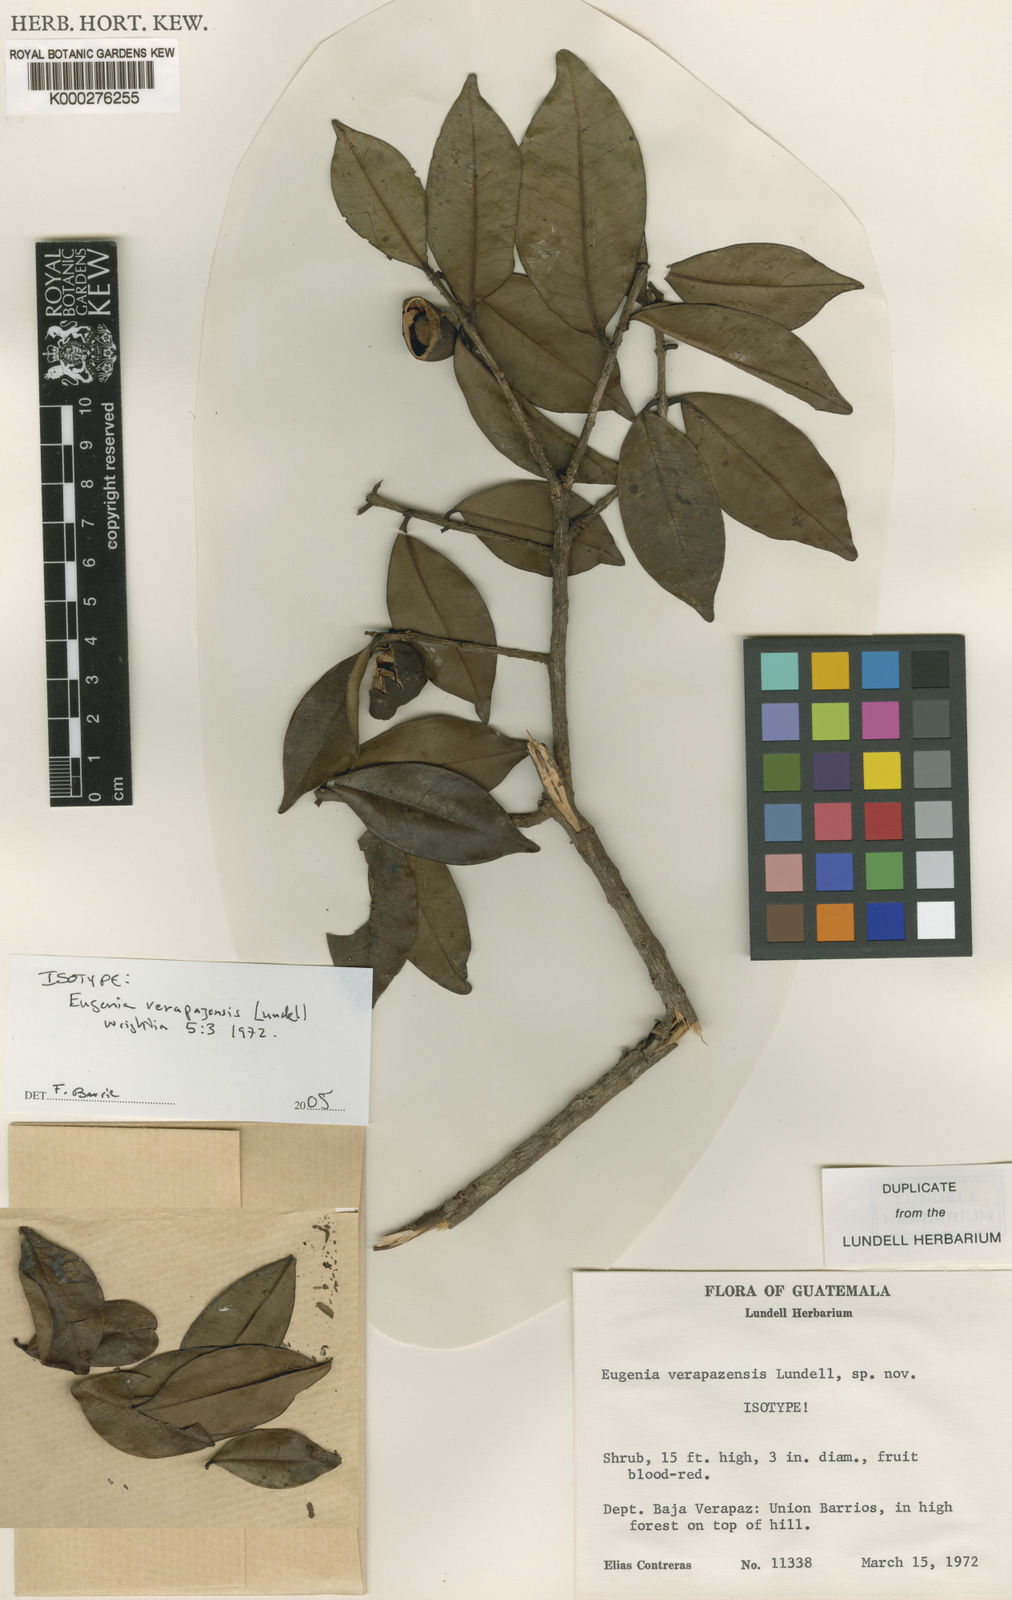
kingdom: Plantae
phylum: Tracheophyta
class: Magnoliopsida
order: Myrtales
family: Myrtaceae
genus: Eugenia
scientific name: Eugenia verapazensis
